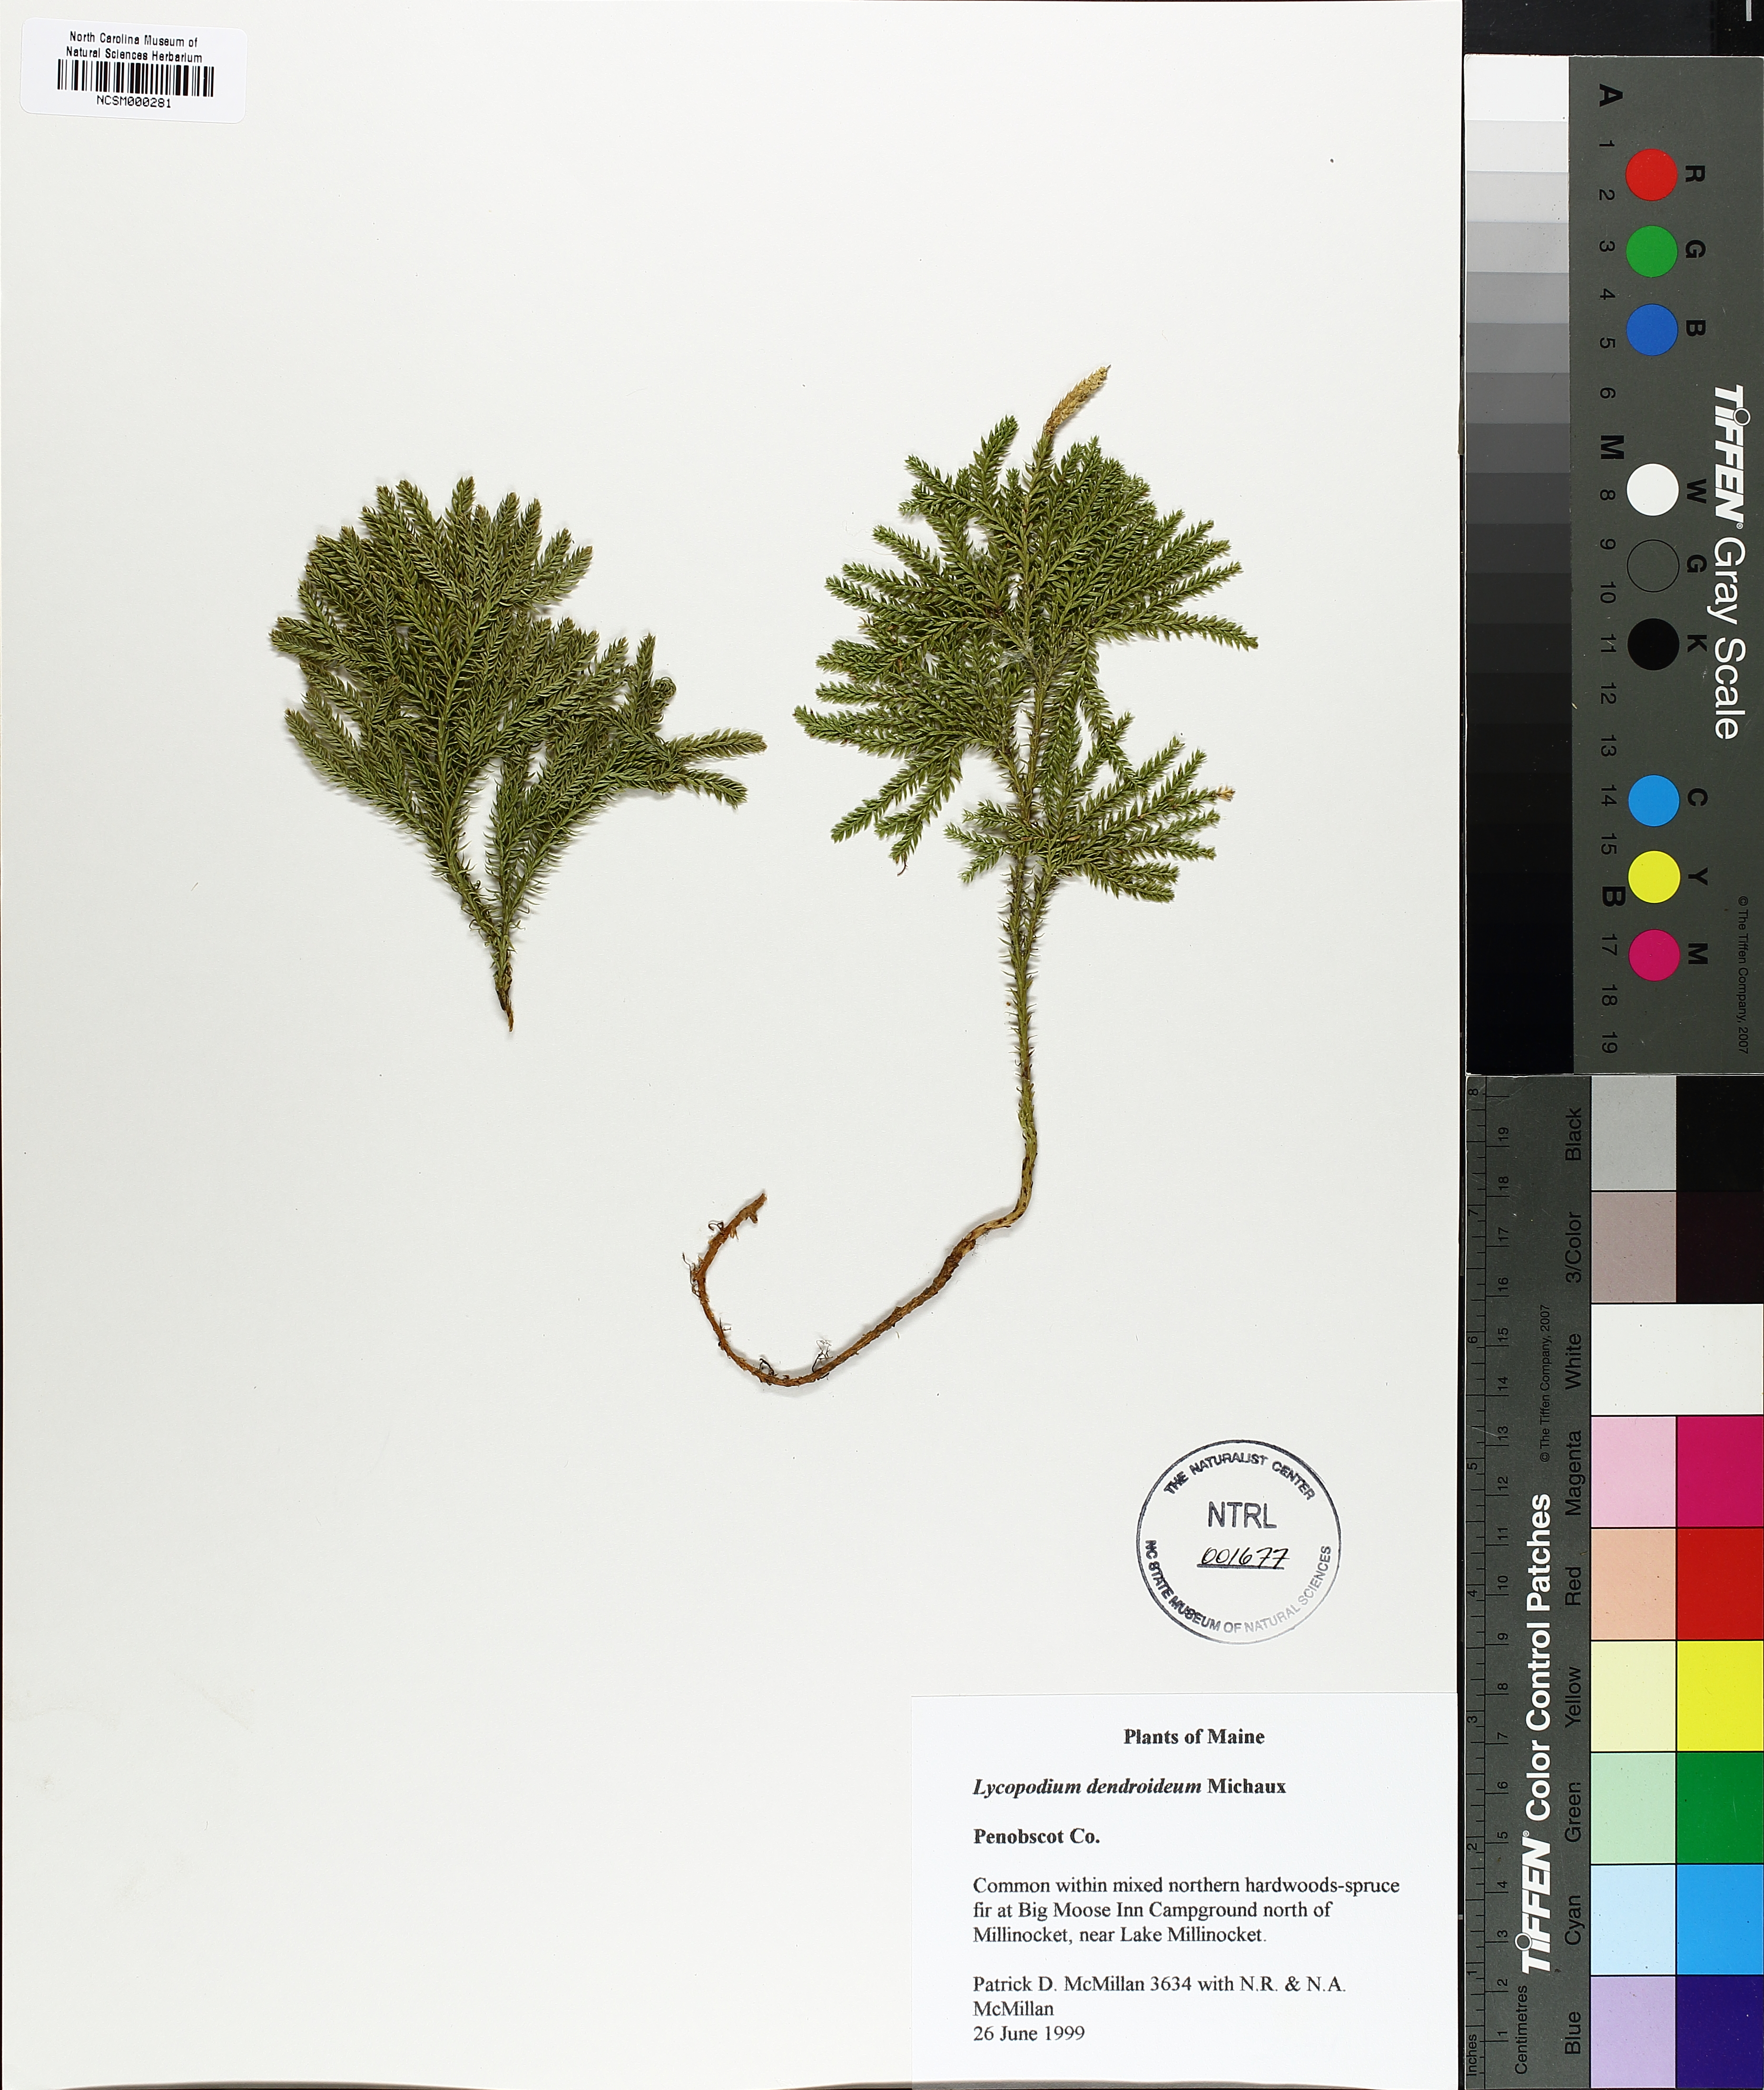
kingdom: Plantae
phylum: Tracheophyta
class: Lycopodiopsida
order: Lycopodiales
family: Lycopodiaceae
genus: Dendrolycopodium
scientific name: Dendrolycopodium dendroideum
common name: Northern tree-clubmoss
